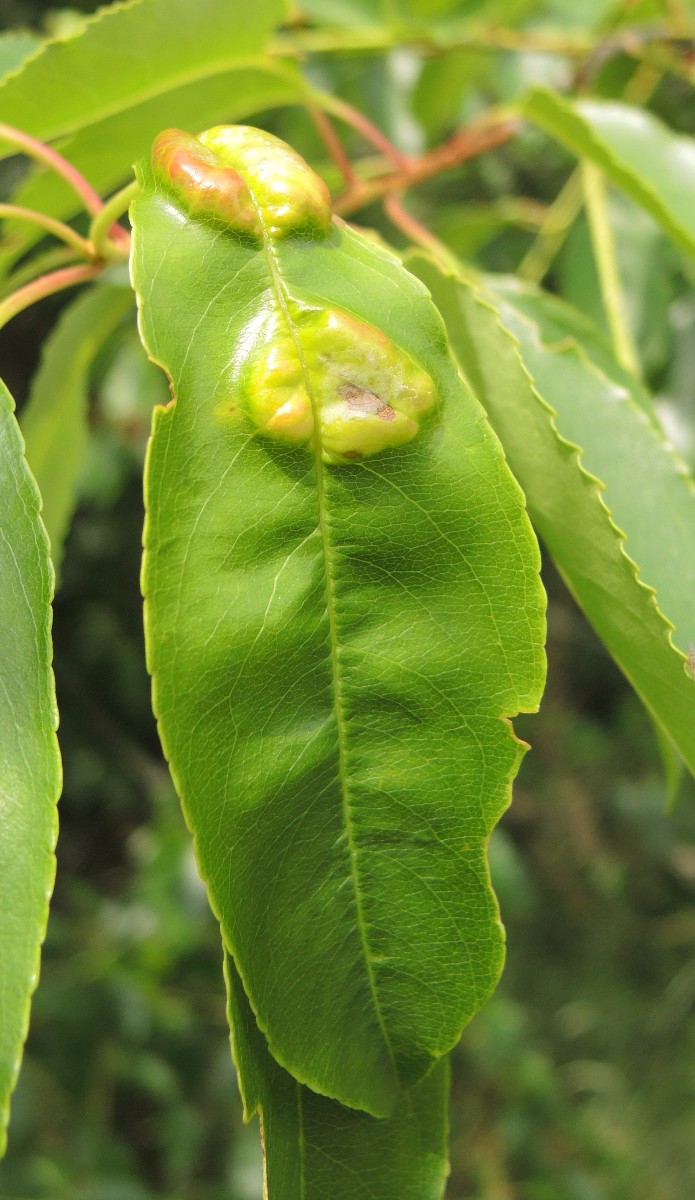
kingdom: Fungi
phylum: Ascomycota
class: Taphrinomycetes
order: Taphrinales
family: Taphrinaceae
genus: Taphrina
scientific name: Taphrina farlowii
